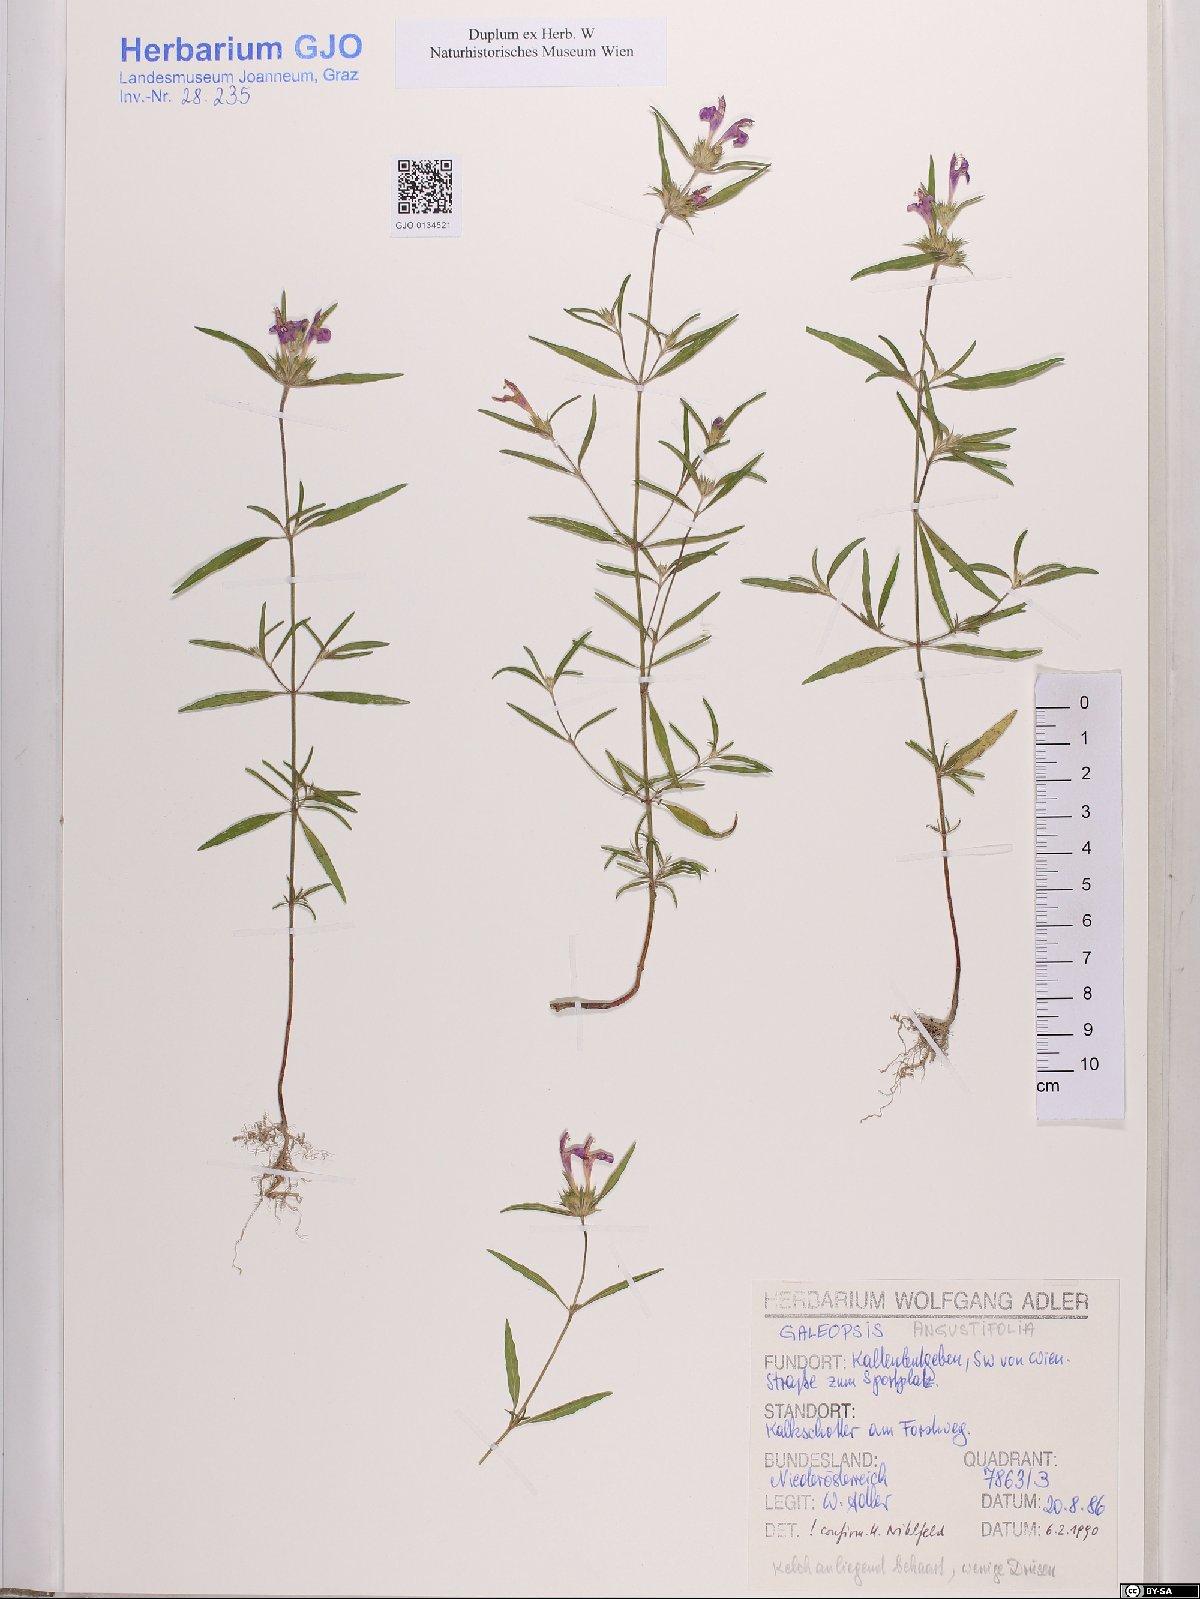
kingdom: Plantae
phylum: Tracheophyta
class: Magnoliopsida
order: Lamiales
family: Lamiaceae
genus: Galeopsis
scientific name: Galeopsis angustifolia
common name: Red hemp-nettle
